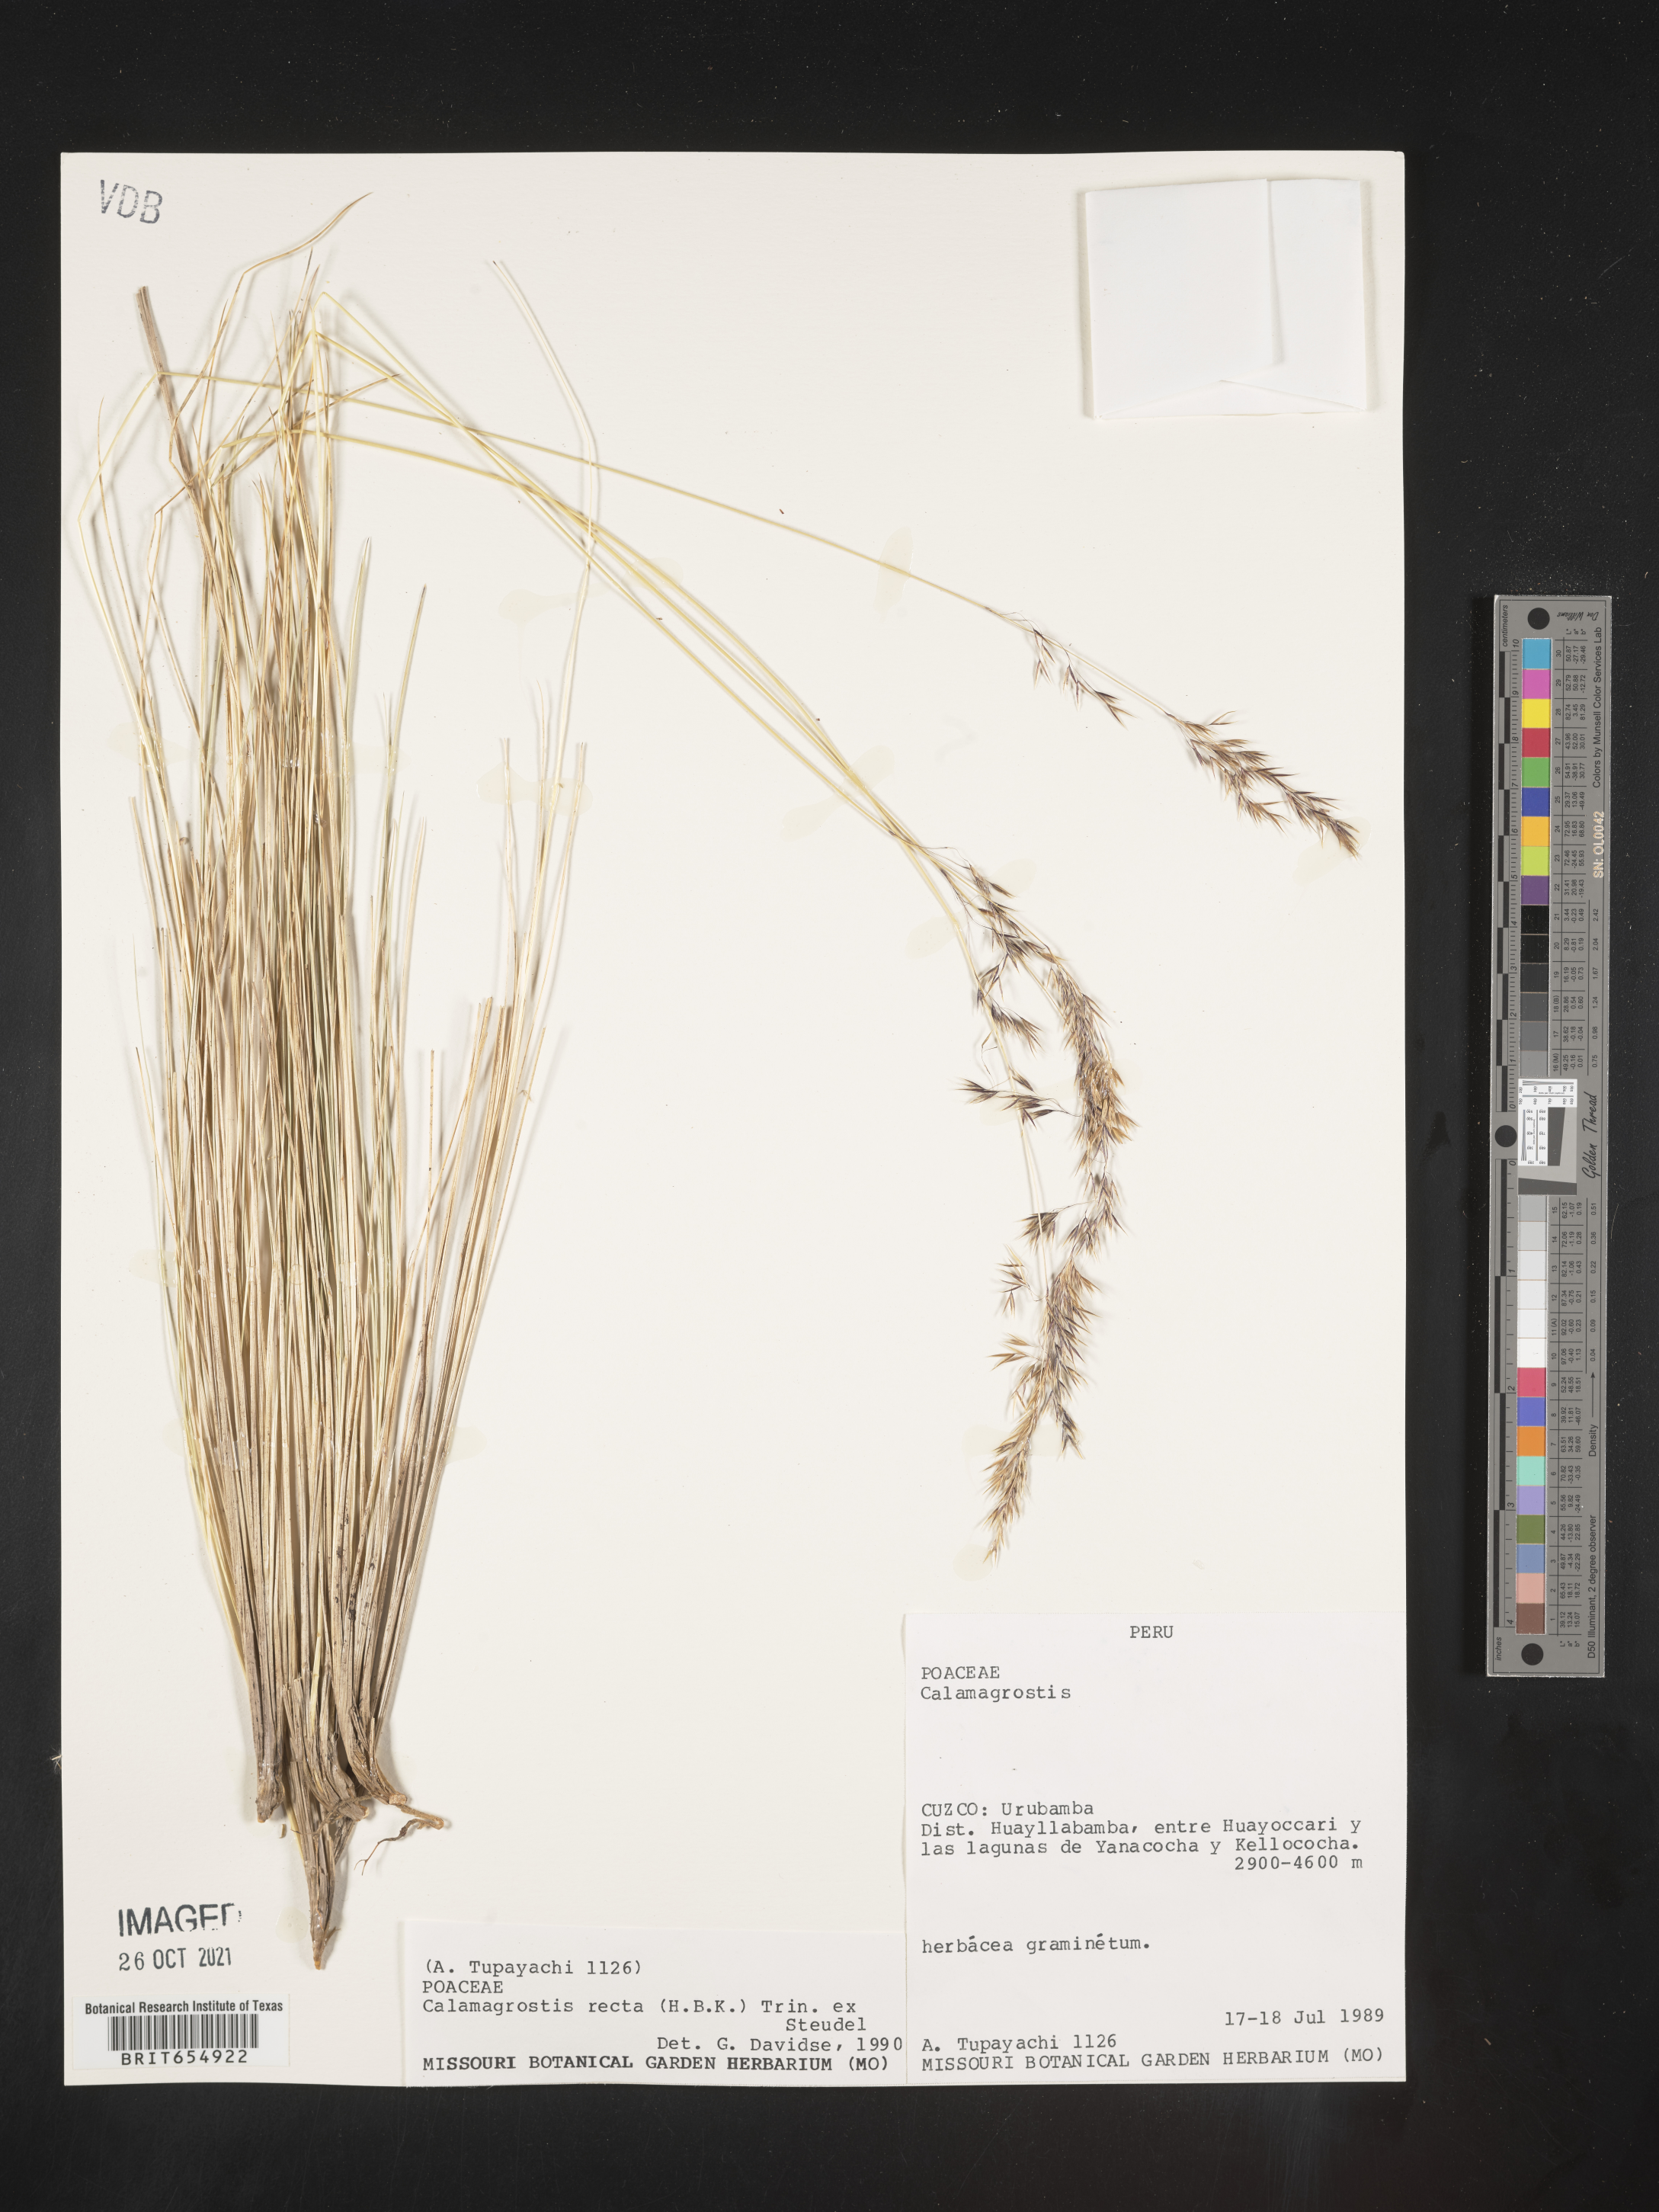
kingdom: Plantae
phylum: Tracheophyta
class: Liliopsida
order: Poales
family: Poaceae
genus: Calamagrostis
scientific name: Calamagrostis
